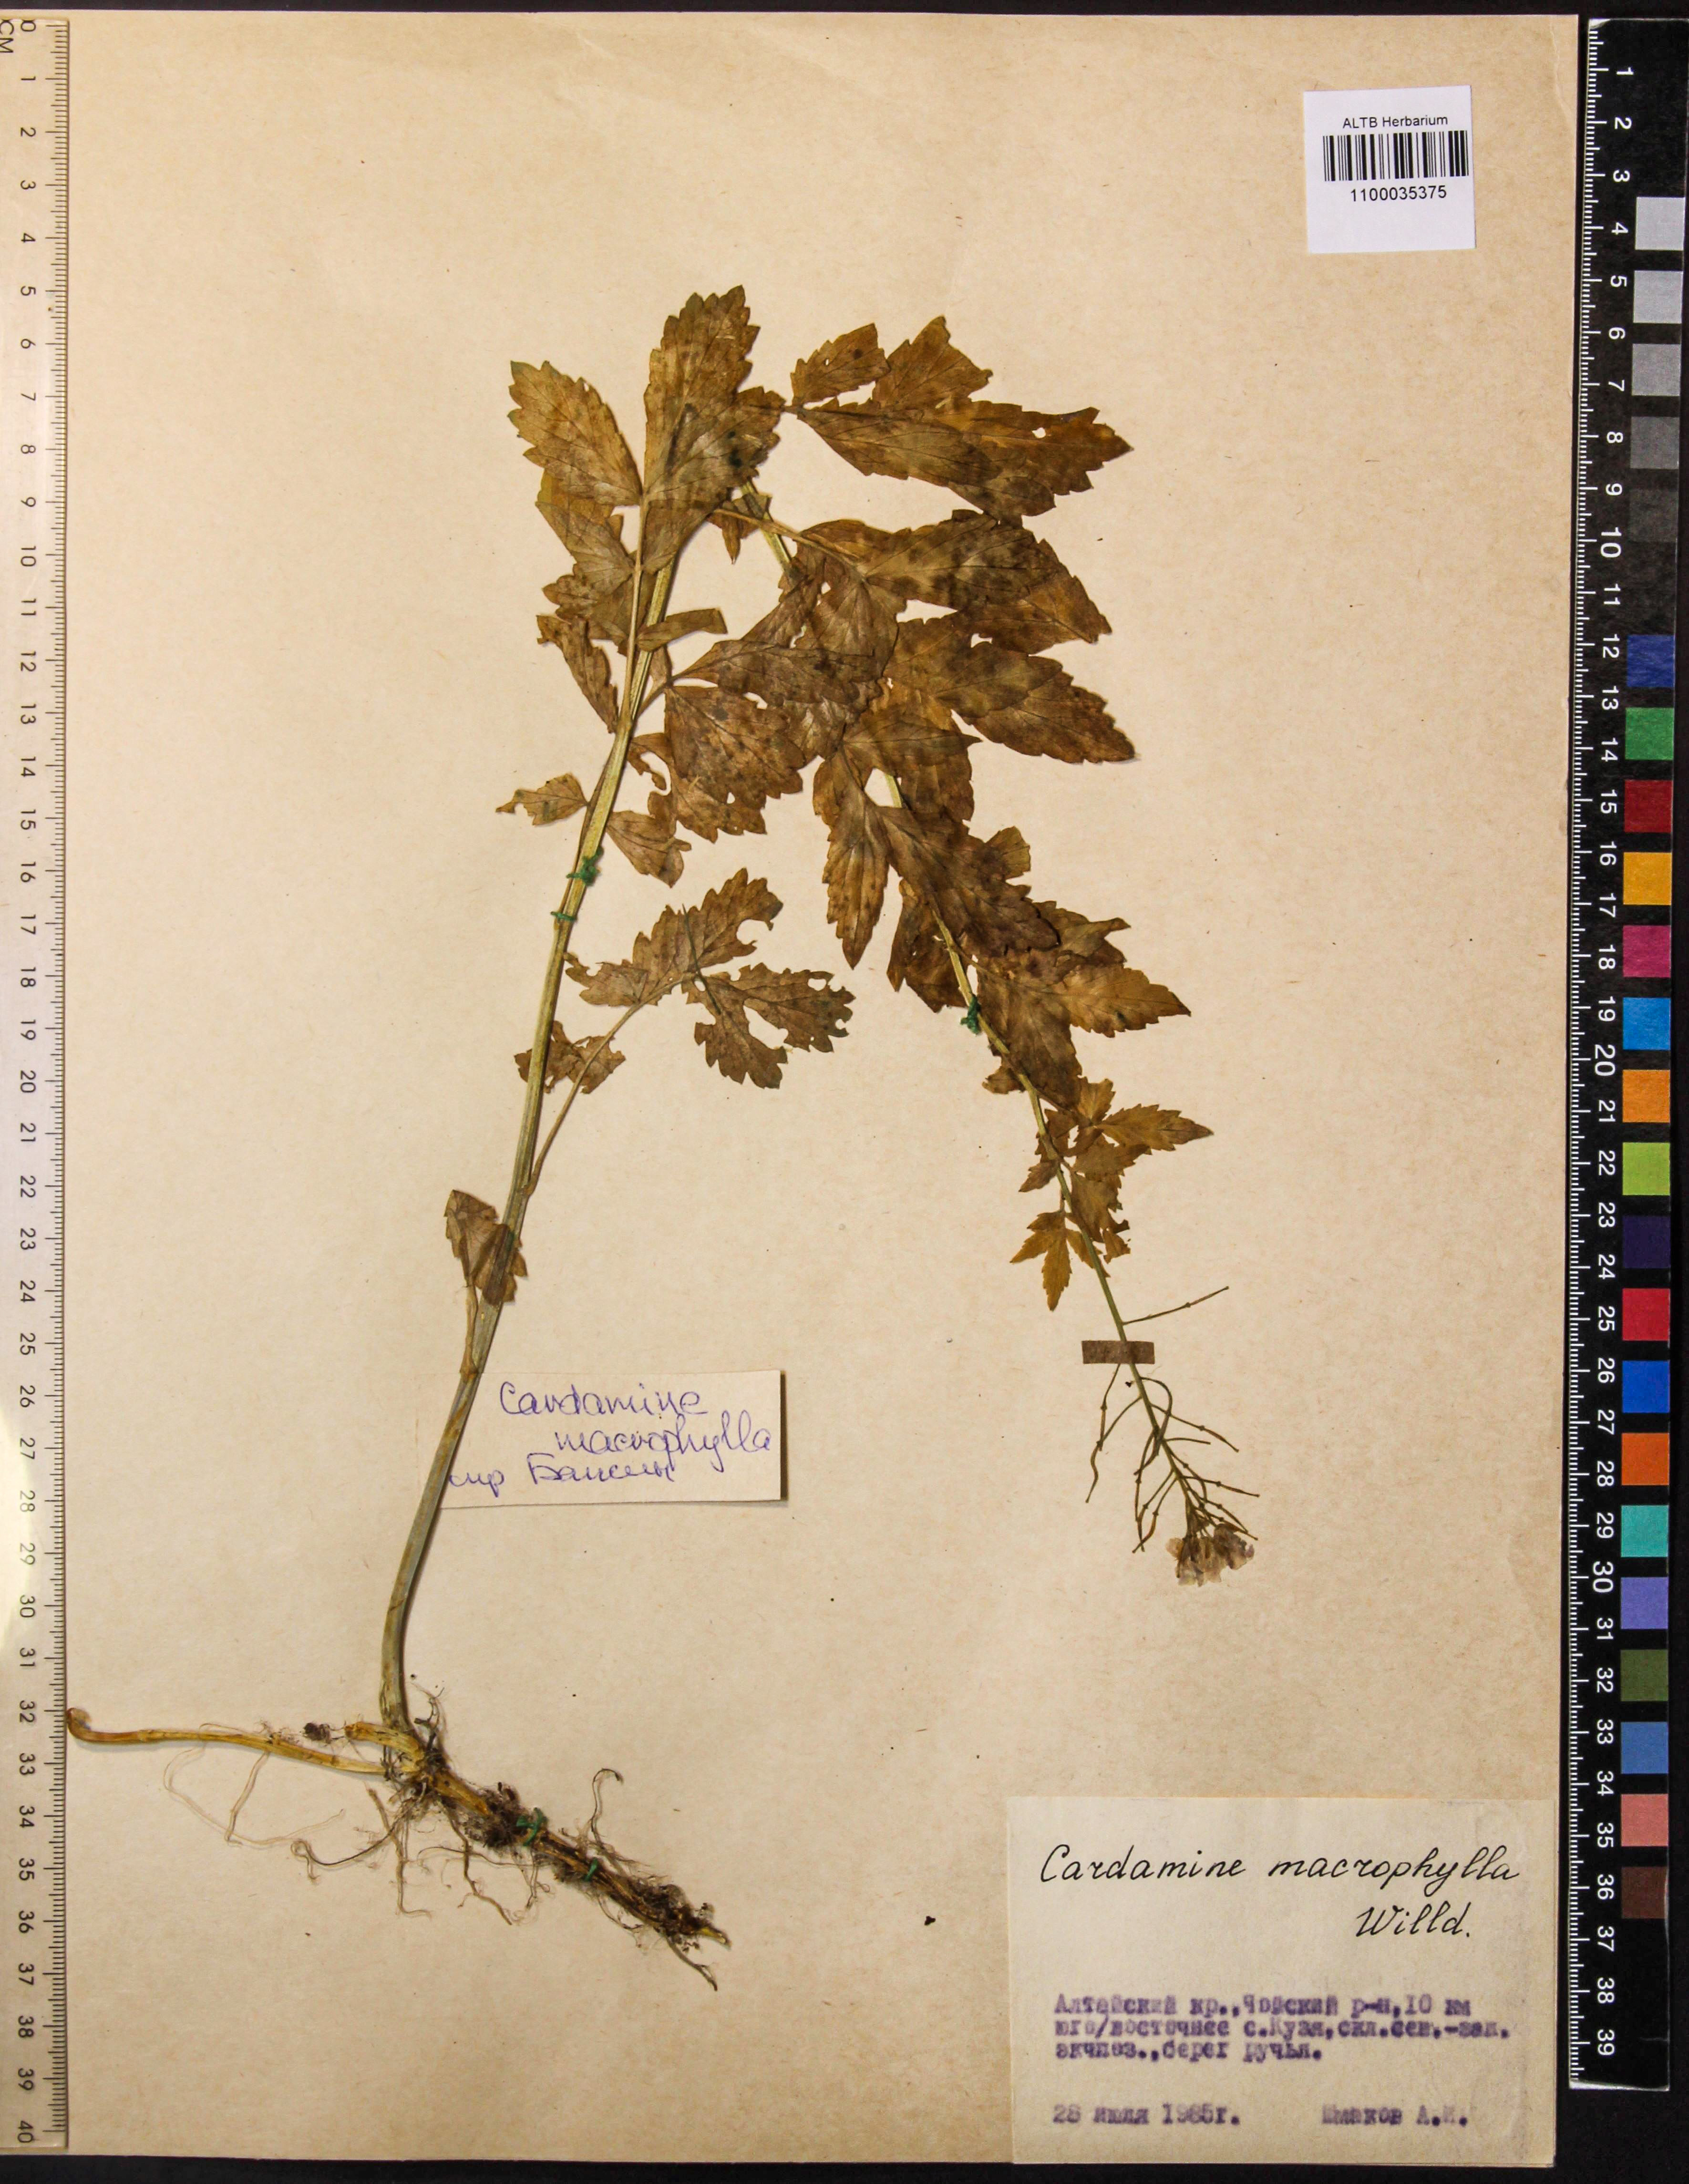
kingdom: Plantae
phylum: Tracheophyta
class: Magnoliopsida
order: Brassicales
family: Brassicaceae
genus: Cardamine
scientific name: Cardamine macrophylla
